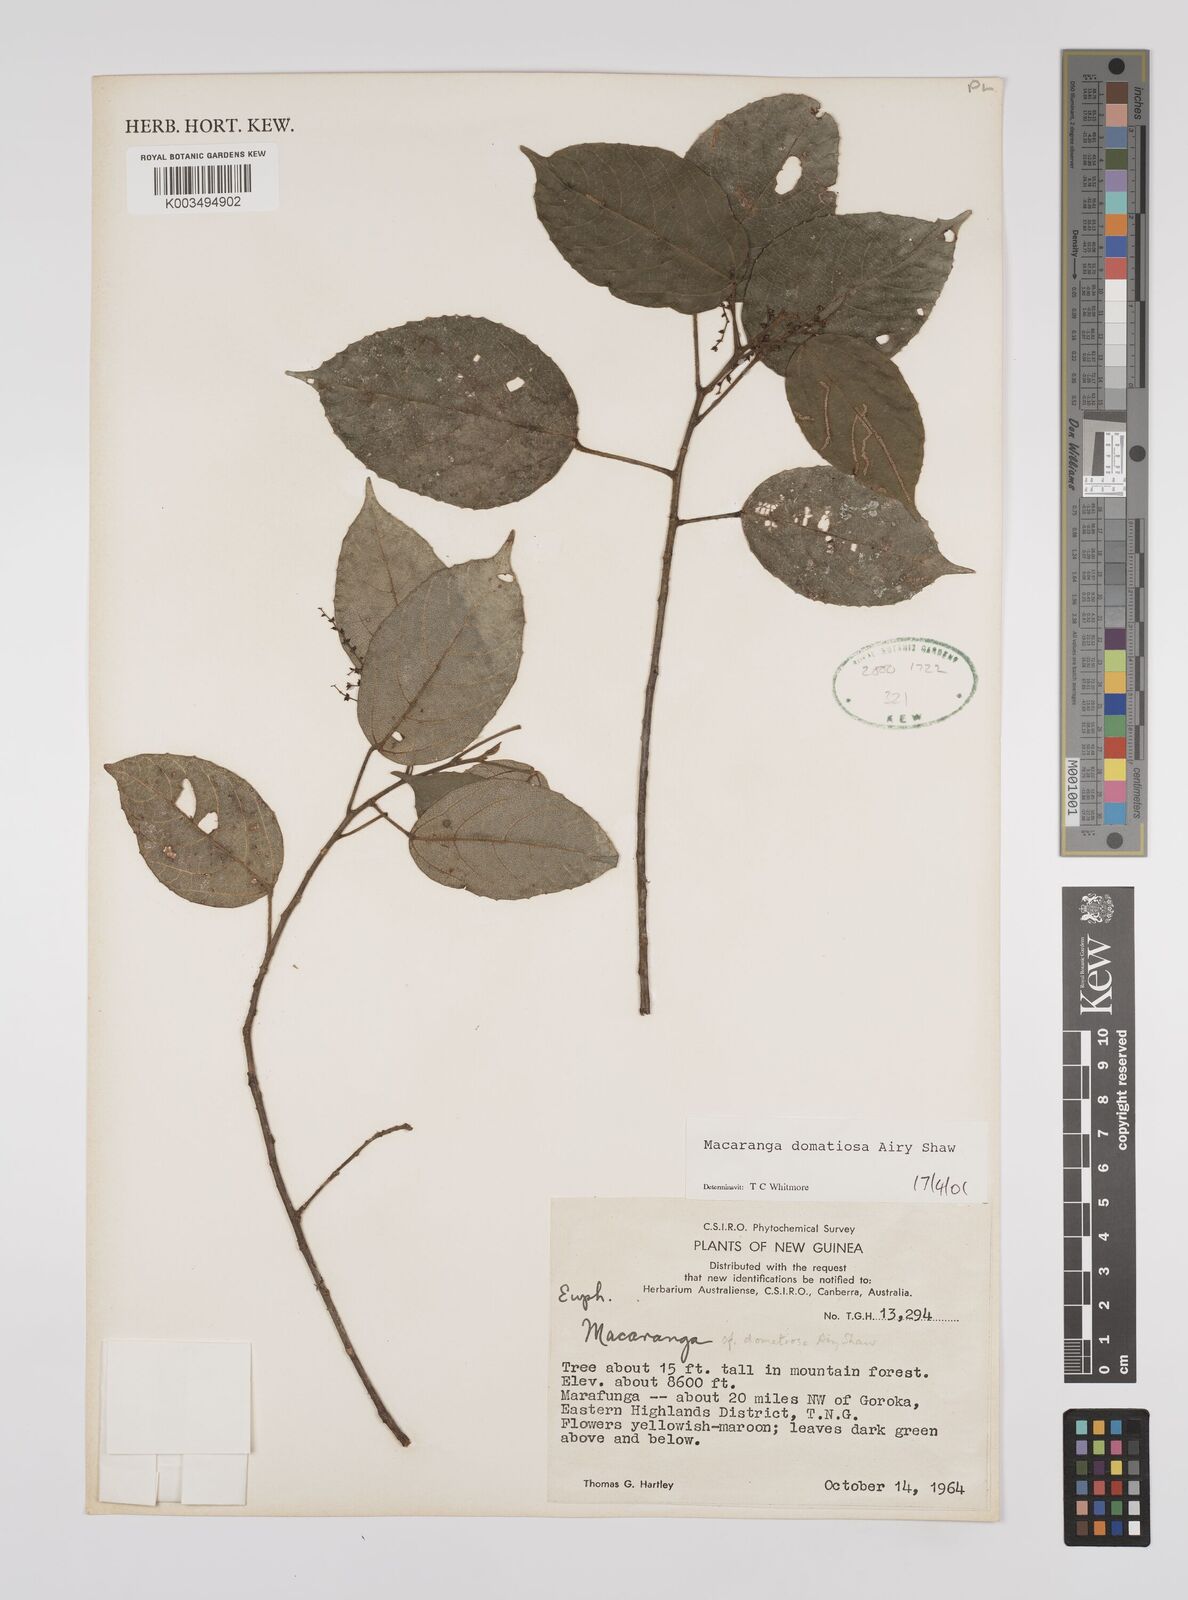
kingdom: Plantae
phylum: Tracheophyta
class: Magnoliopsida
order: Malpighiales
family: Euphorbiaceae
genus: Macaranga
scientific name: Macaranga domatiosa
